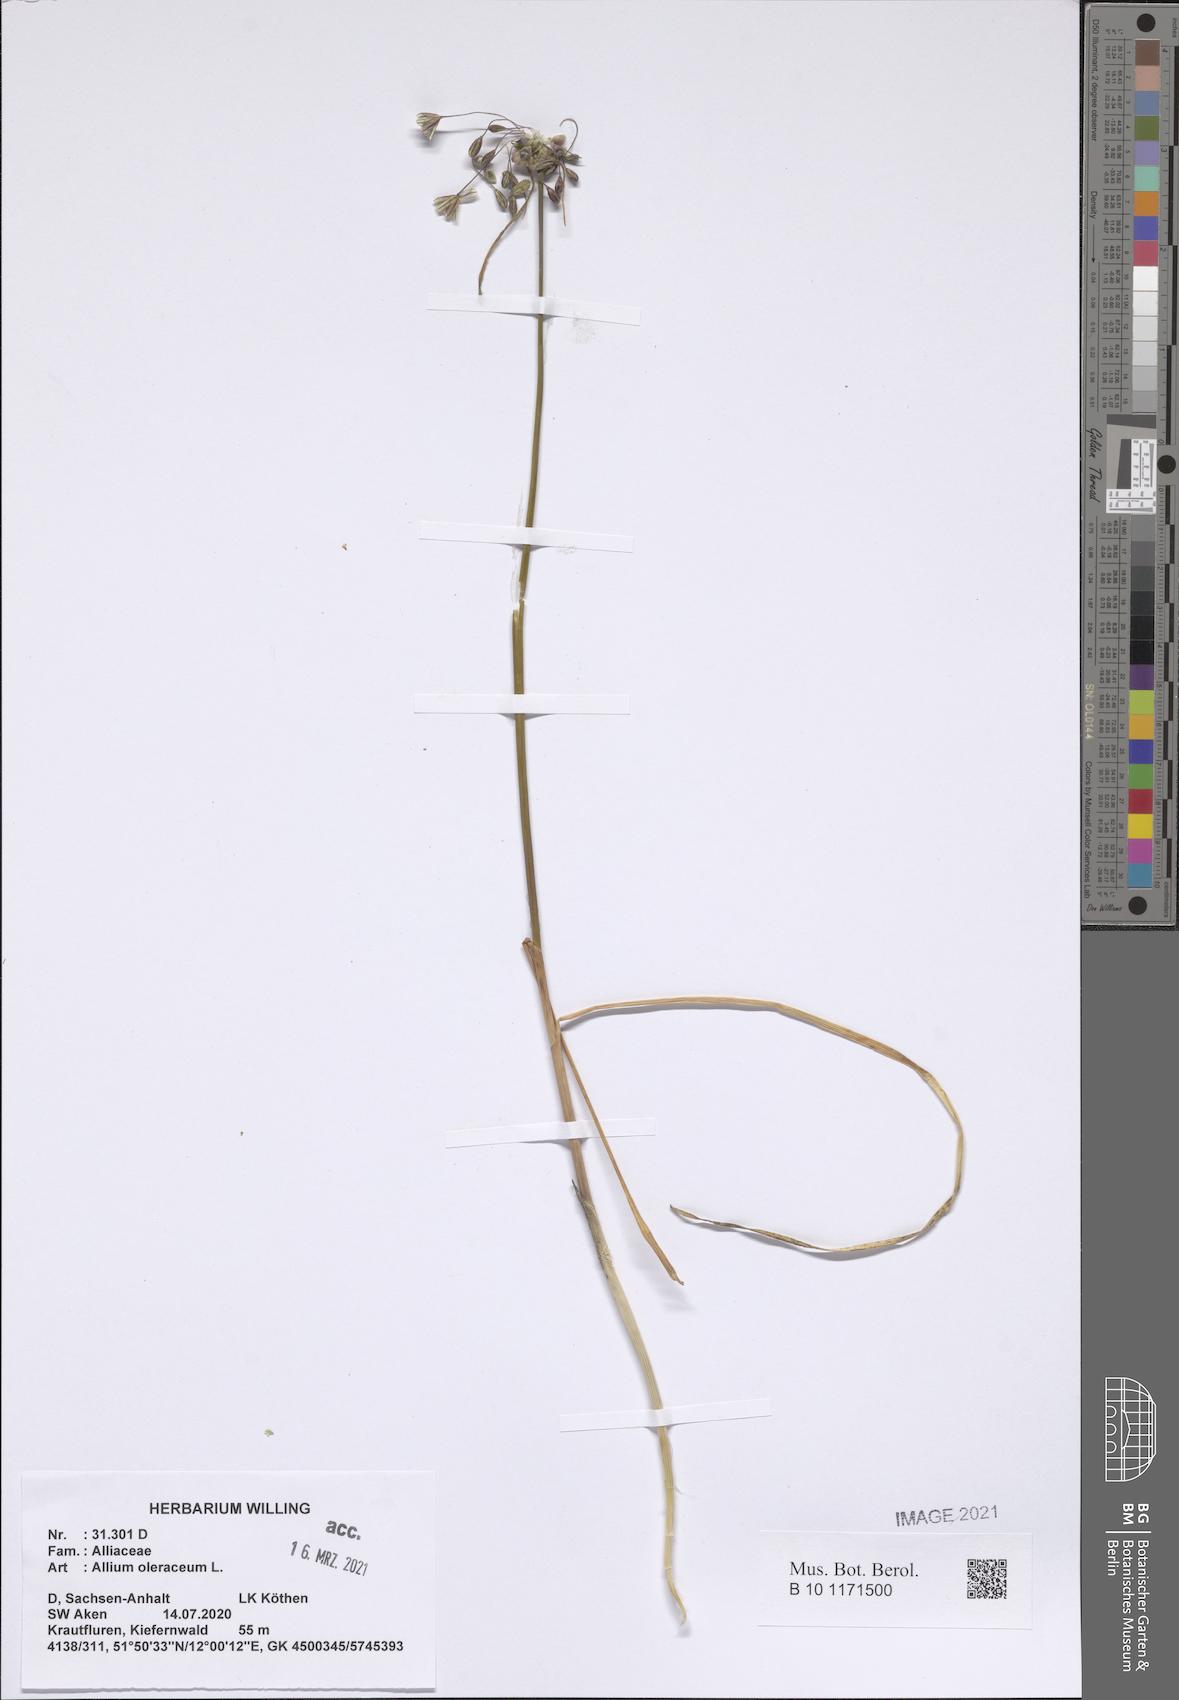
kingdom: Plantae
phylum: Tracheophyta
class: Liliopsida
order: Asparagales
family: Amaryllidaceae
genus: Allium
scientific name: Allium oleraceum
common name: Field garlic
